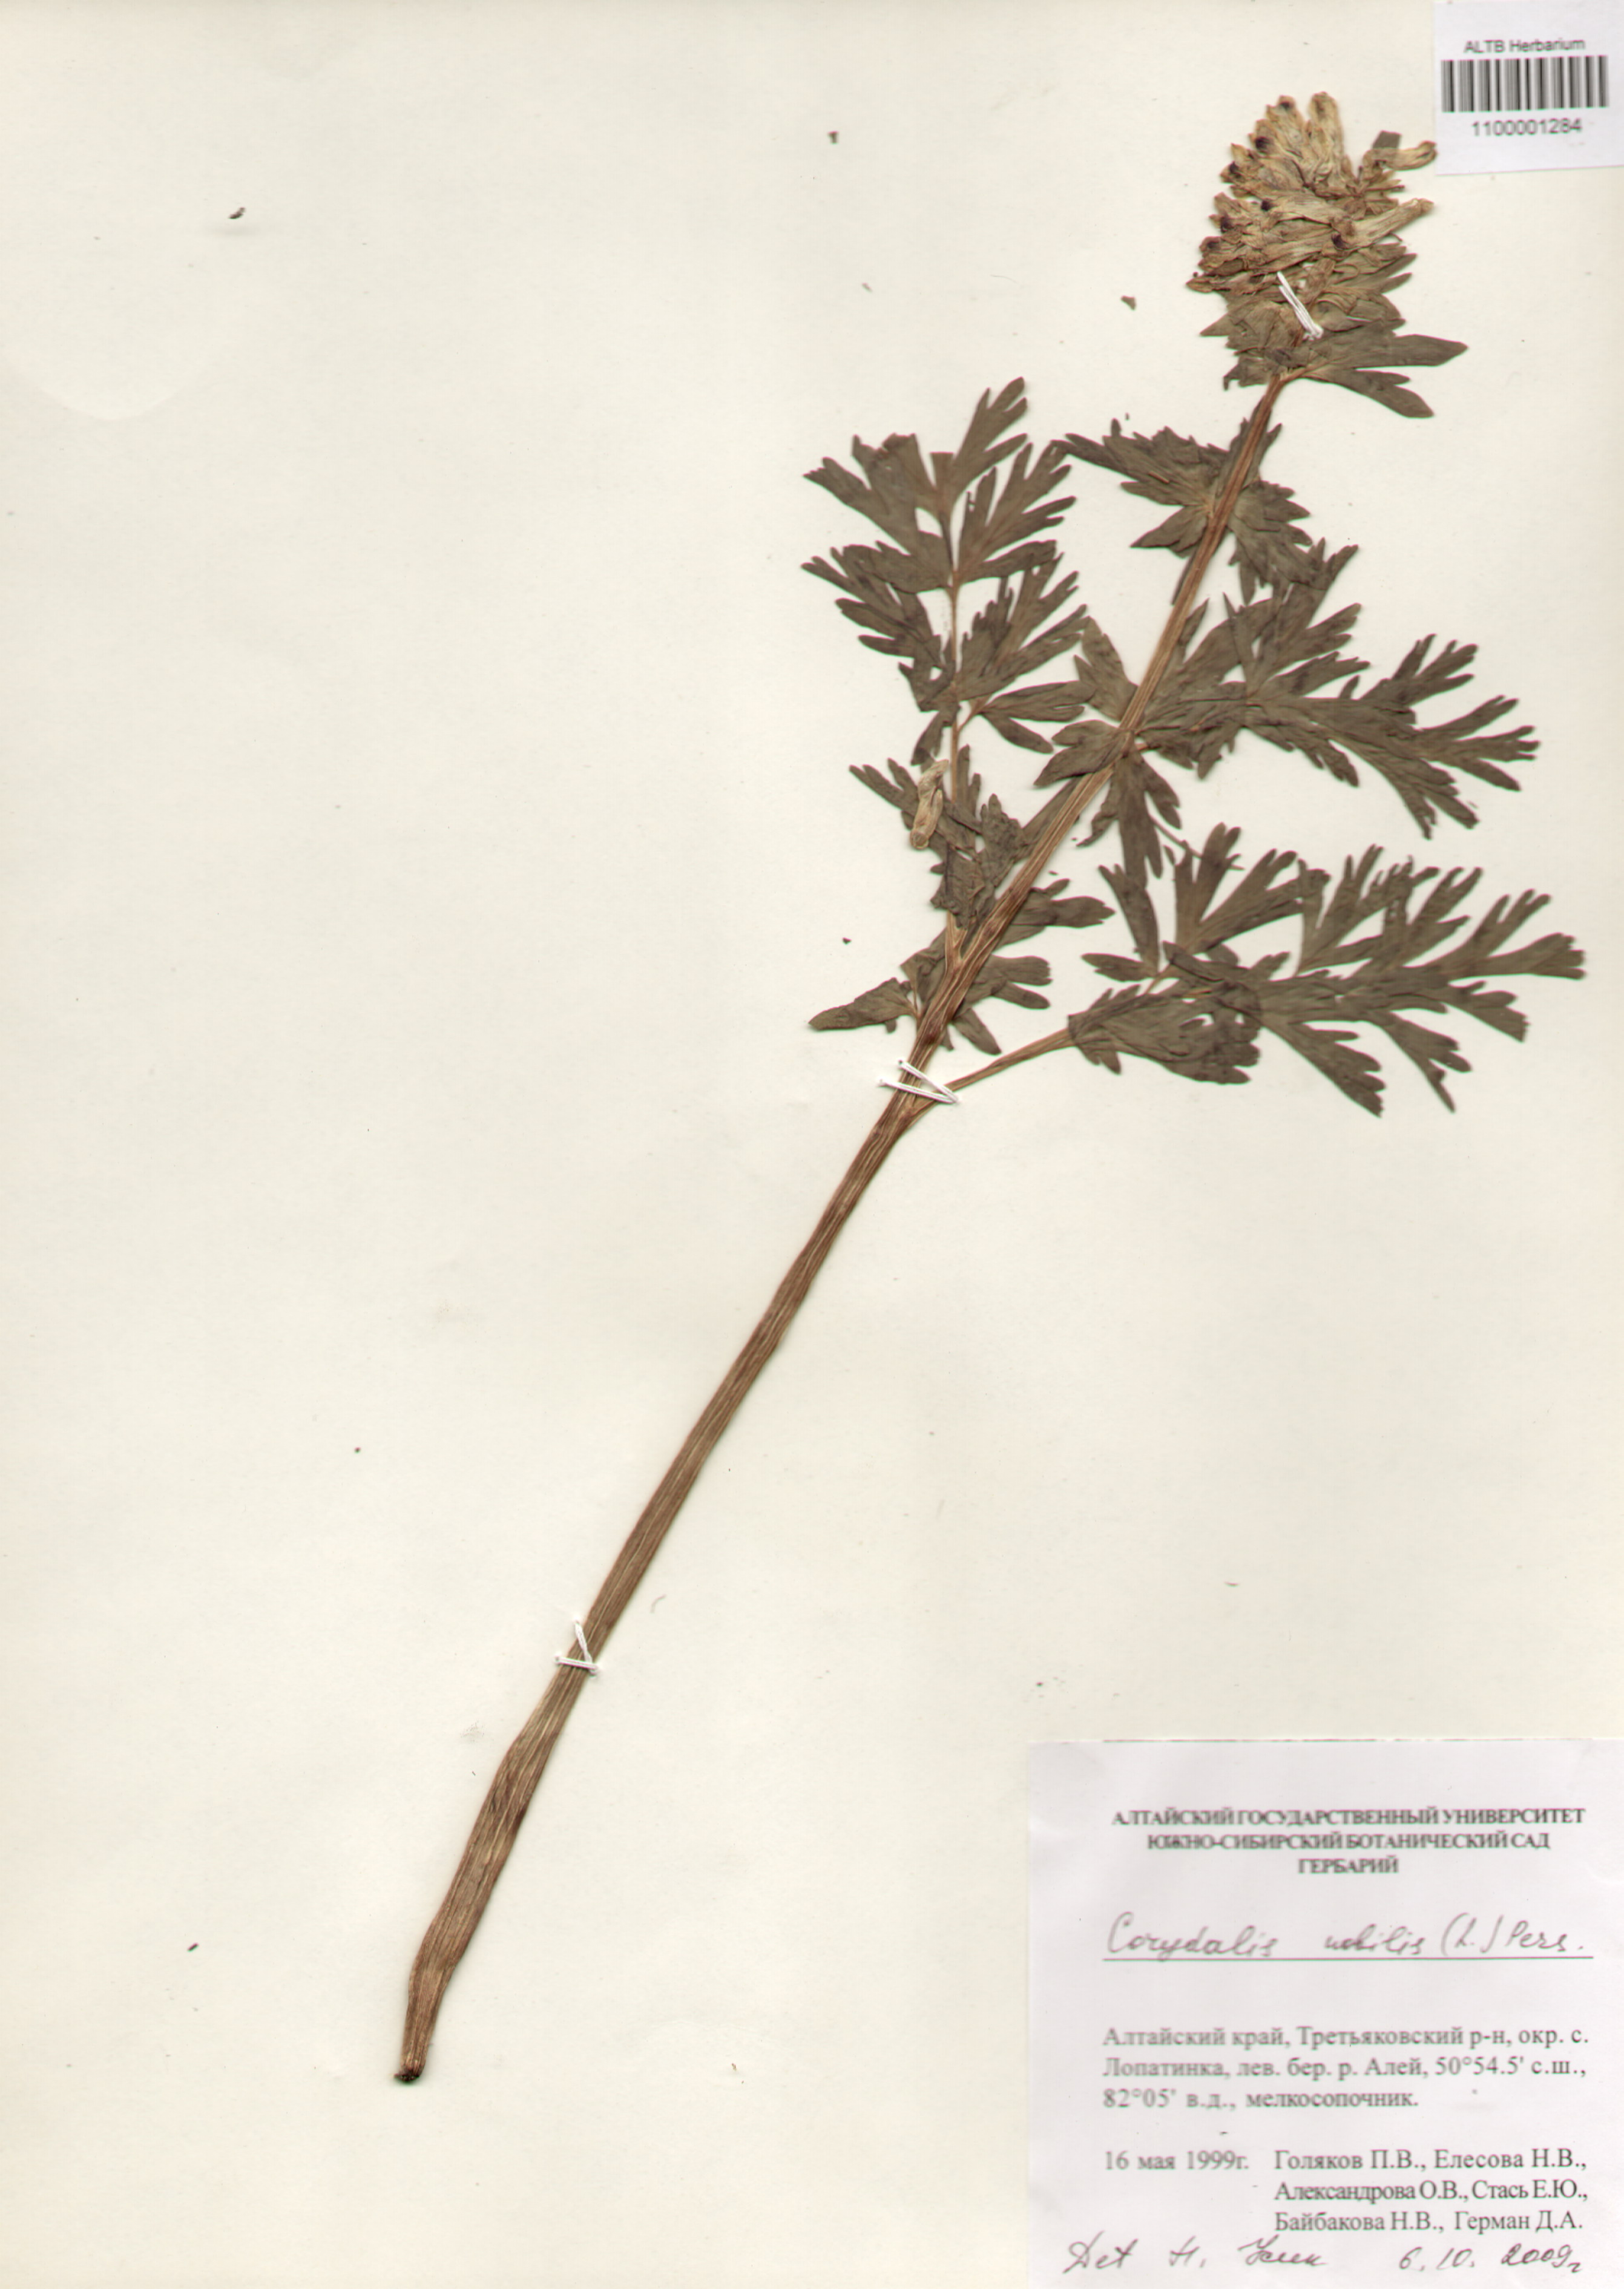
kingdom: Plantae
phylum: Tracheophyta
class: Magnoliopsida
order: Ranunculales
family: Papaveraceae
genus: Corydalis
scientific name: Corydalis nobilis
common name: Siberian corydalis
